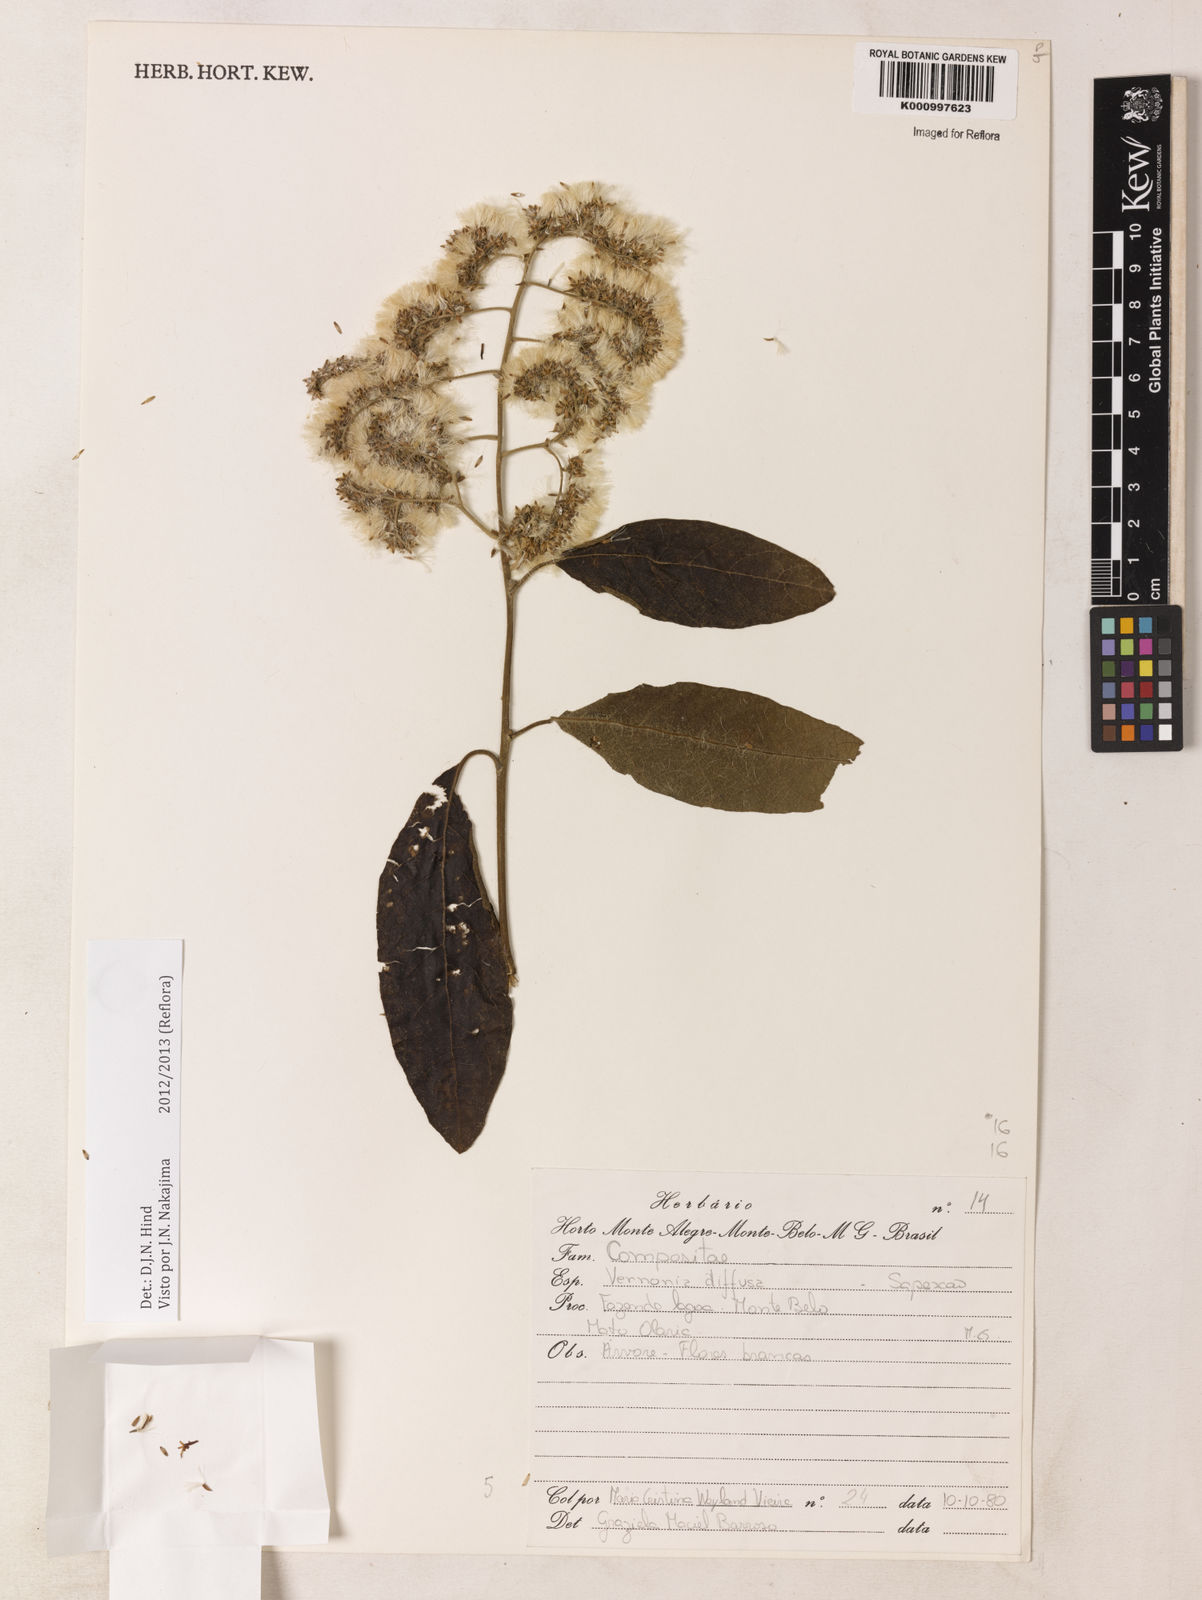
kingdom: Plantae
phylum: Tracheophyta
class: Magnoliopsida
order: Asterales
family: Asteraceae
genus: Vernonanthura
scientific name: Vernonanthura divaricata
